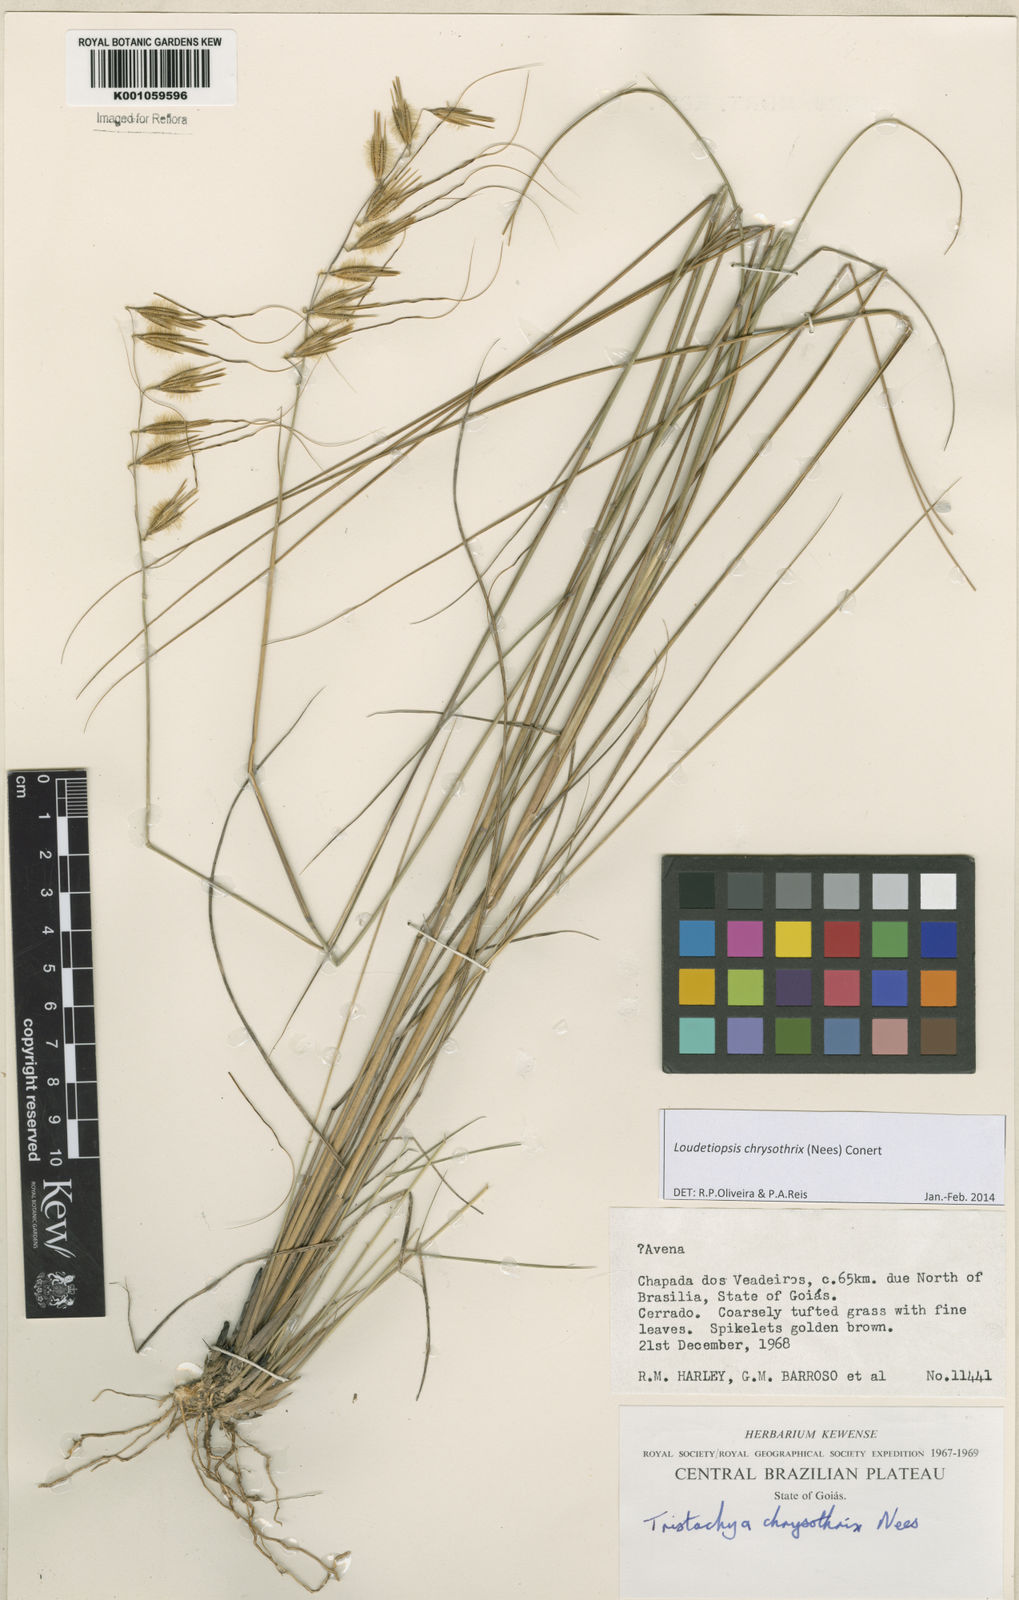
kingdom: Plantae
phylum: Tracheophyta
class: Liliopsida
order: Poales
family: Poaceae
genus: Loudetiopsis
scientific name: Loudetiopsis chrysothrix
